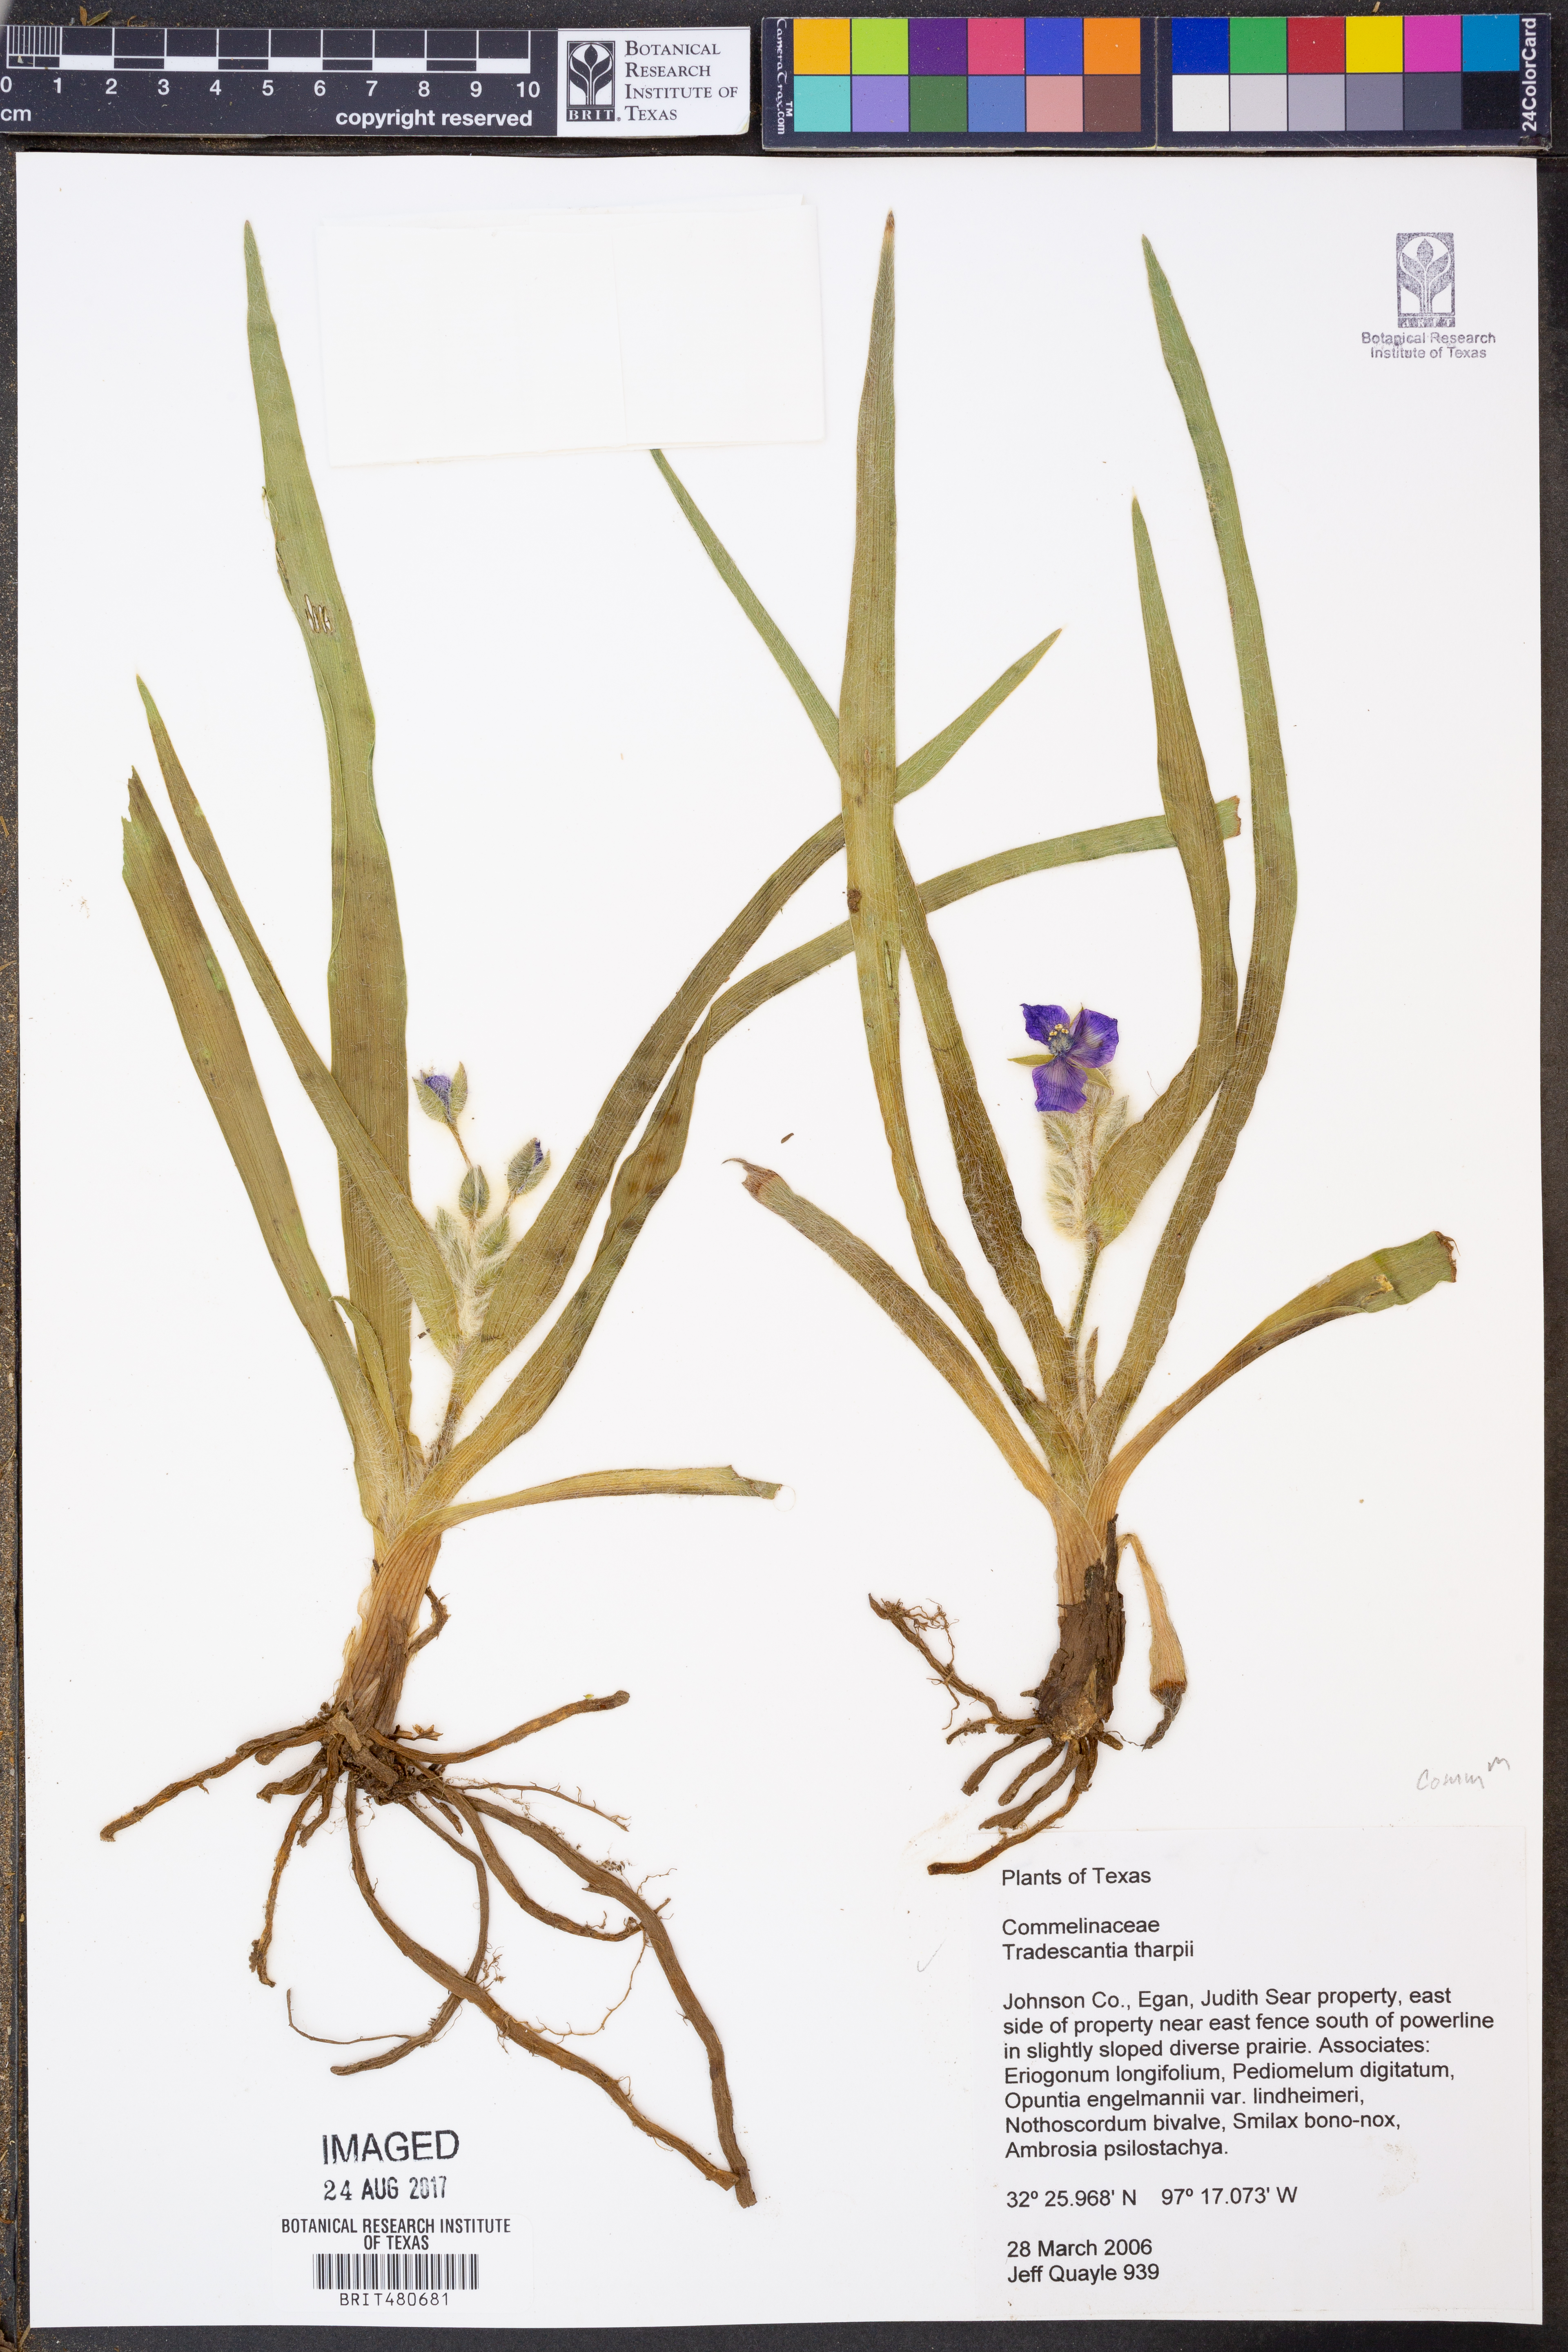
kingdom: Plantae
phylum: Tracheophyta
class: Liliopsida
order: Commelinales
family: Commelinaceae
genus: Tradescantia
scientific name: Tradescantia tharpii
